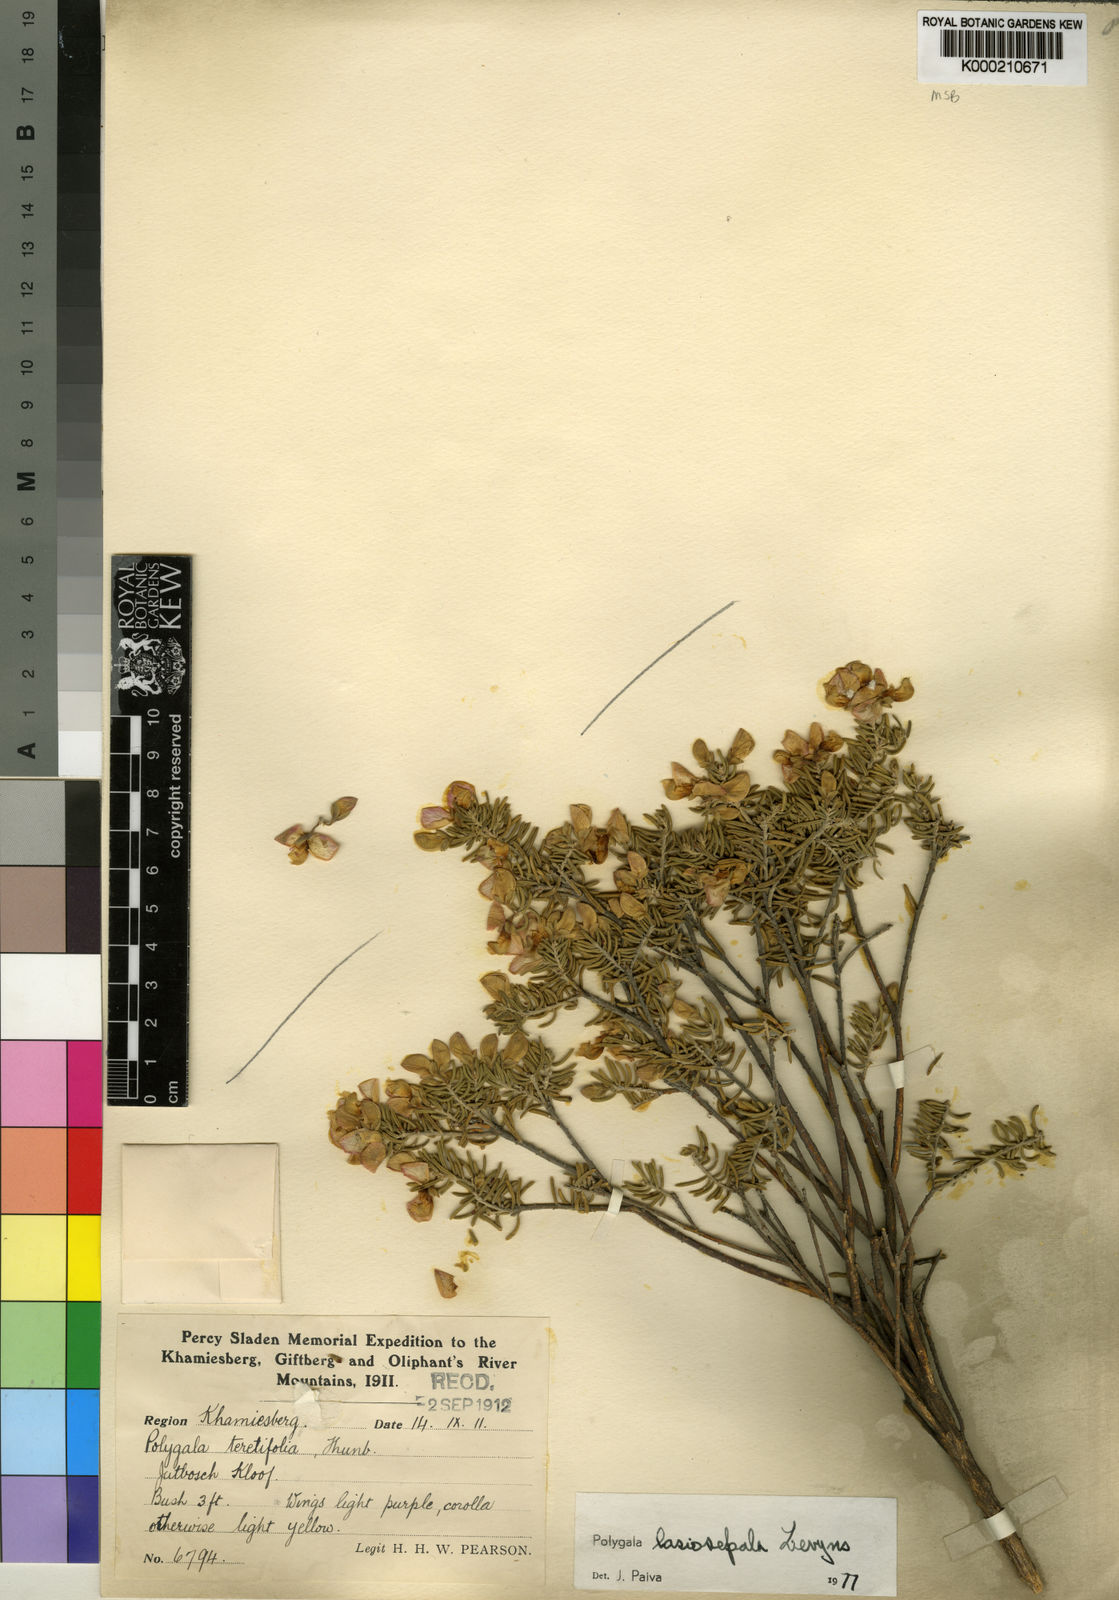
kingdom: Plantae
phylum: Tracheophyta
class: Magnoliopsida
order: Fabales
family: Polygalaceae
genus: Polygala
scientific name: Polygala lasiosepala
